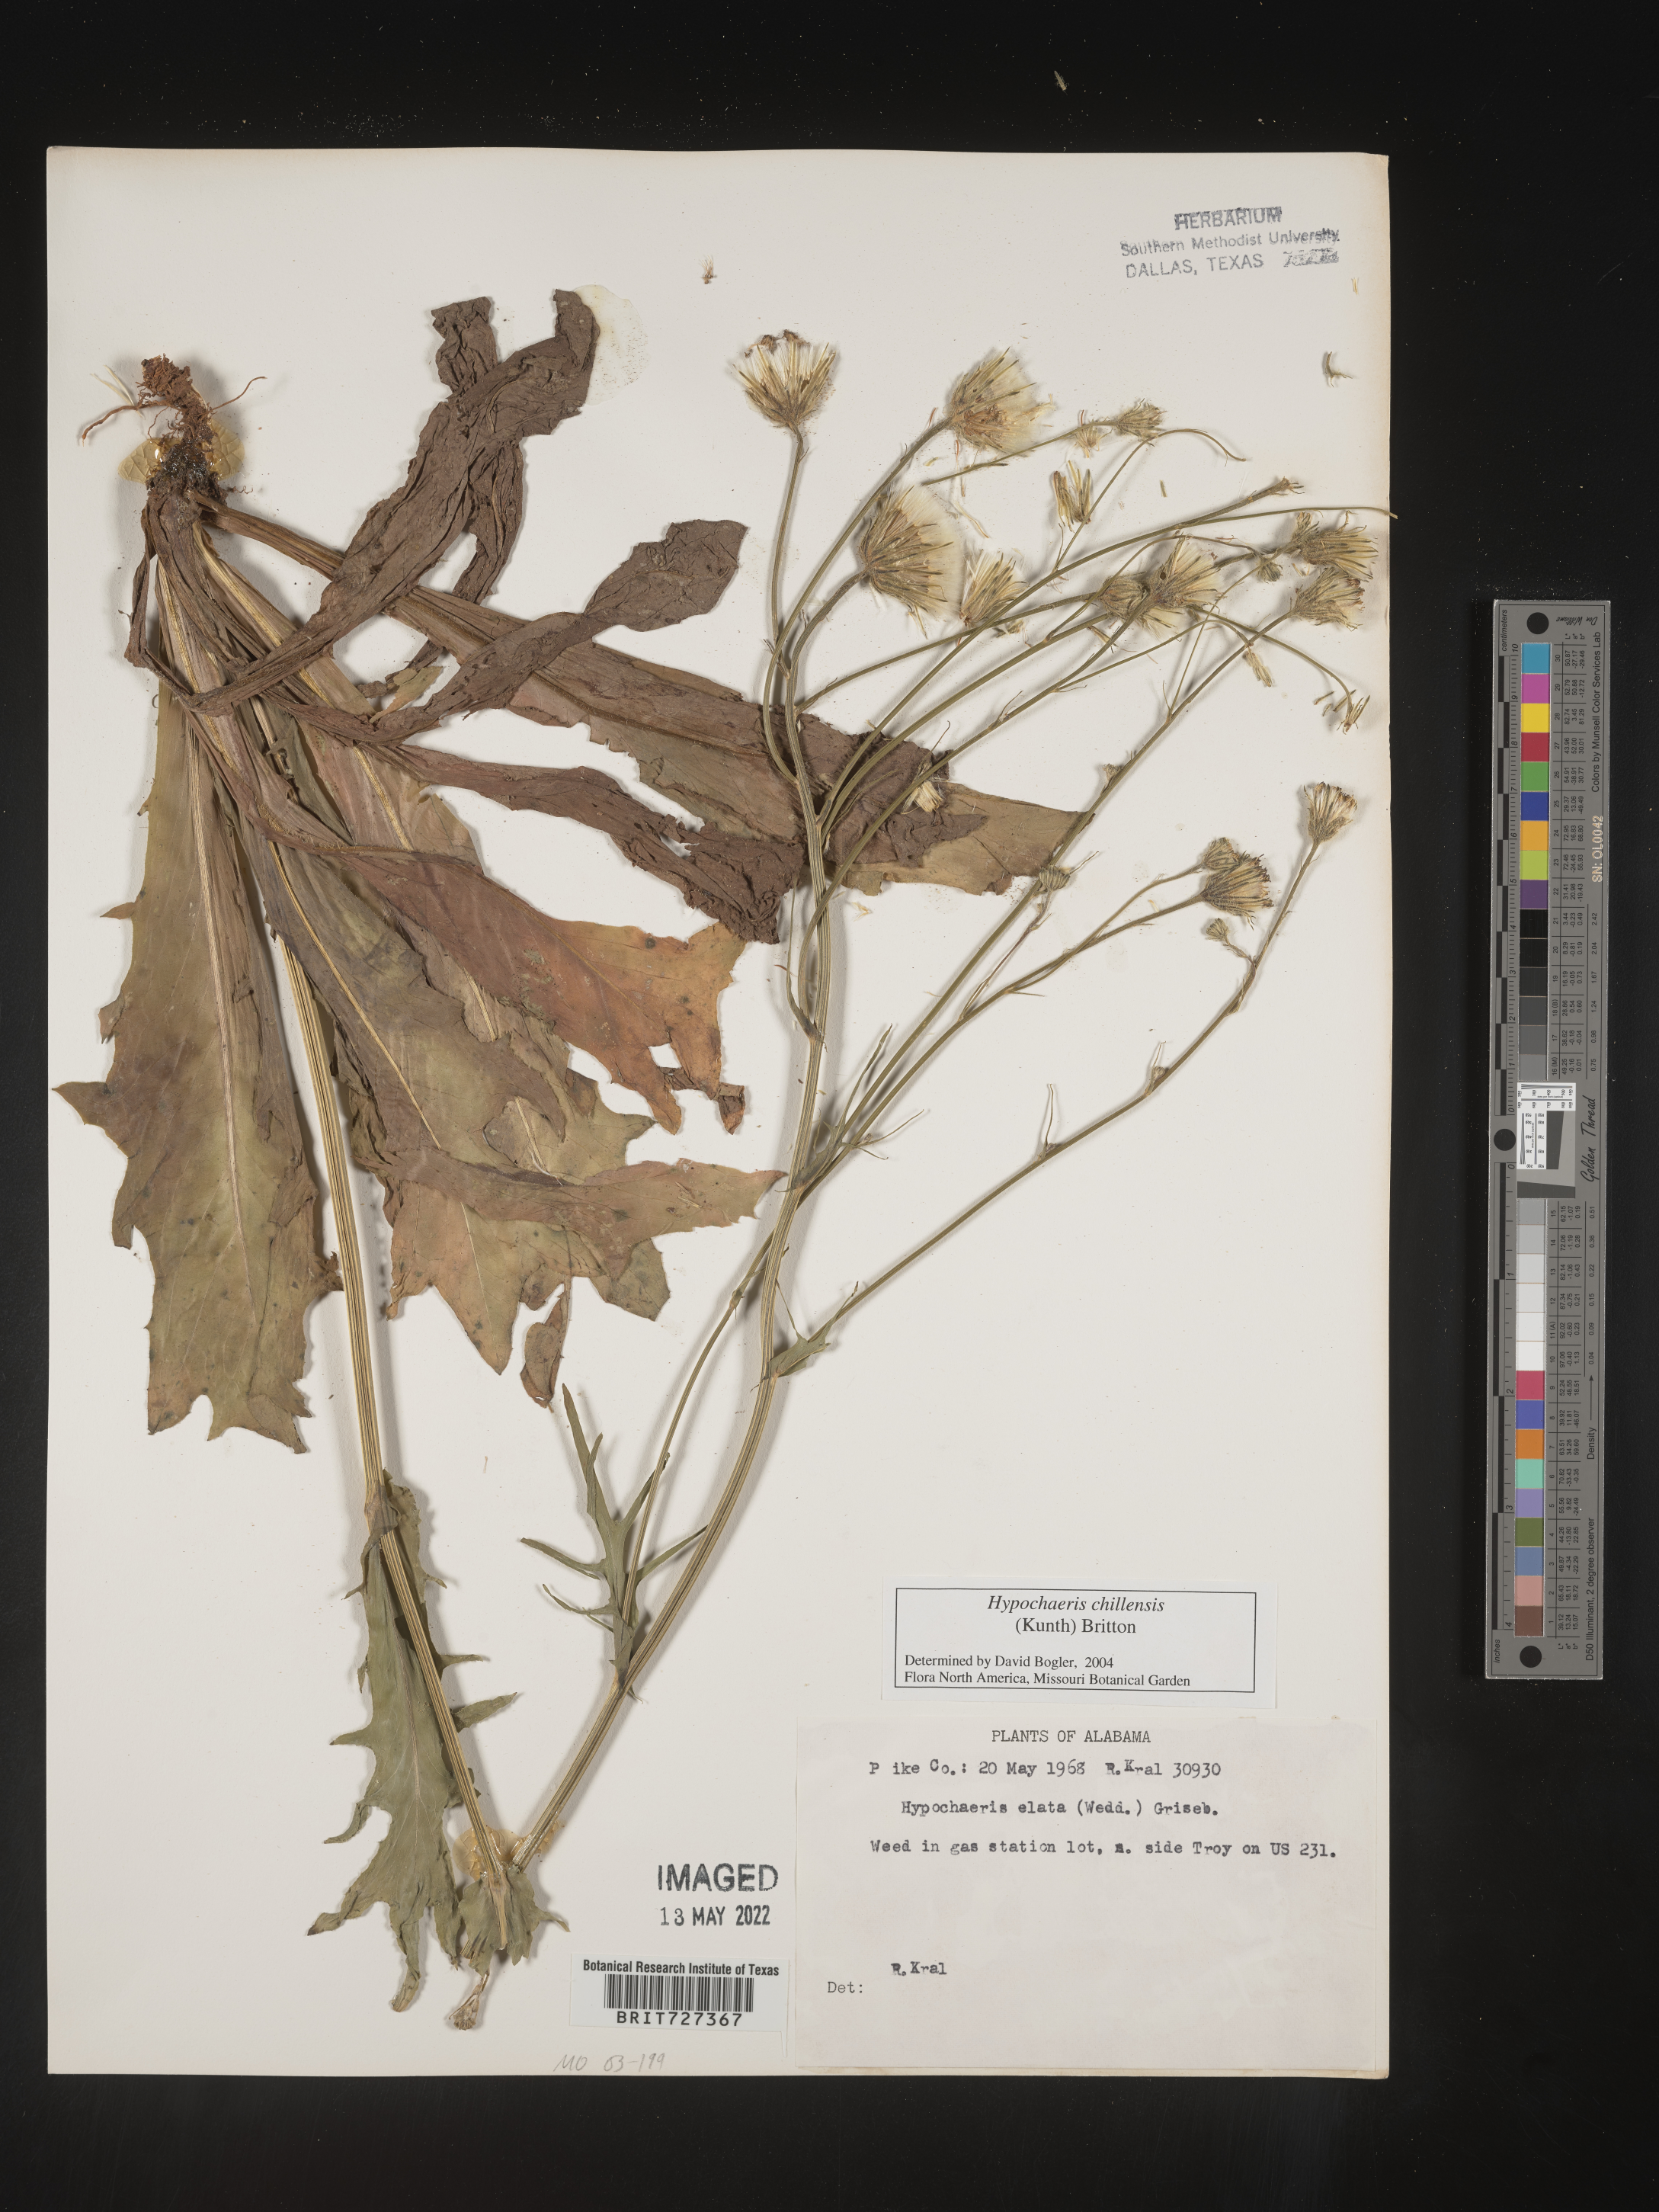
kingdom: Plantae
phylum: Tracheophyta
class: Magnoliopsida
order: Asterales
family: Asteraceae
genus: Hypochaeris
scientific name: Hypochaeris chillensis
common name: Brazilian cat's ear
